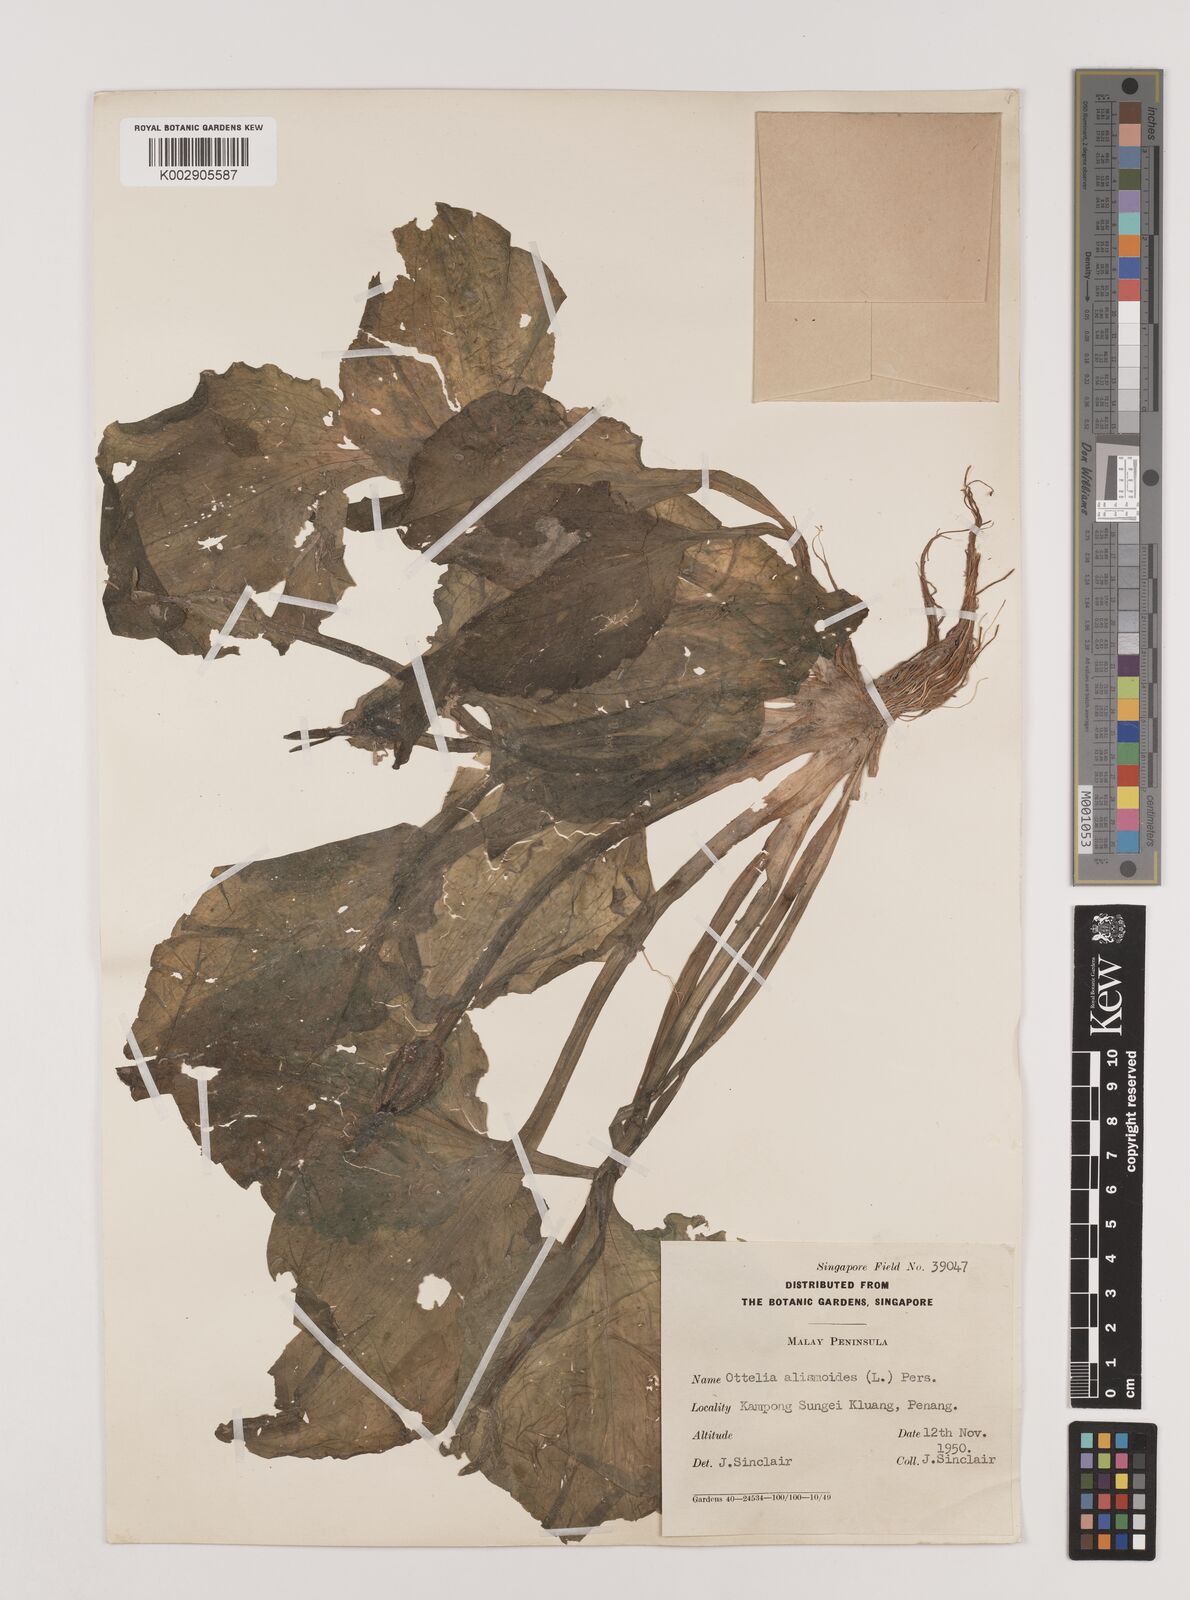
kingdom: Plantae
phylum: Tracheophyta
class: Liliopsida
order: Alismatales
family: Hydrocharitaceae
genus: Ottelia
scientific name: Ottelia alismoides
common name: Duck-lettuce
